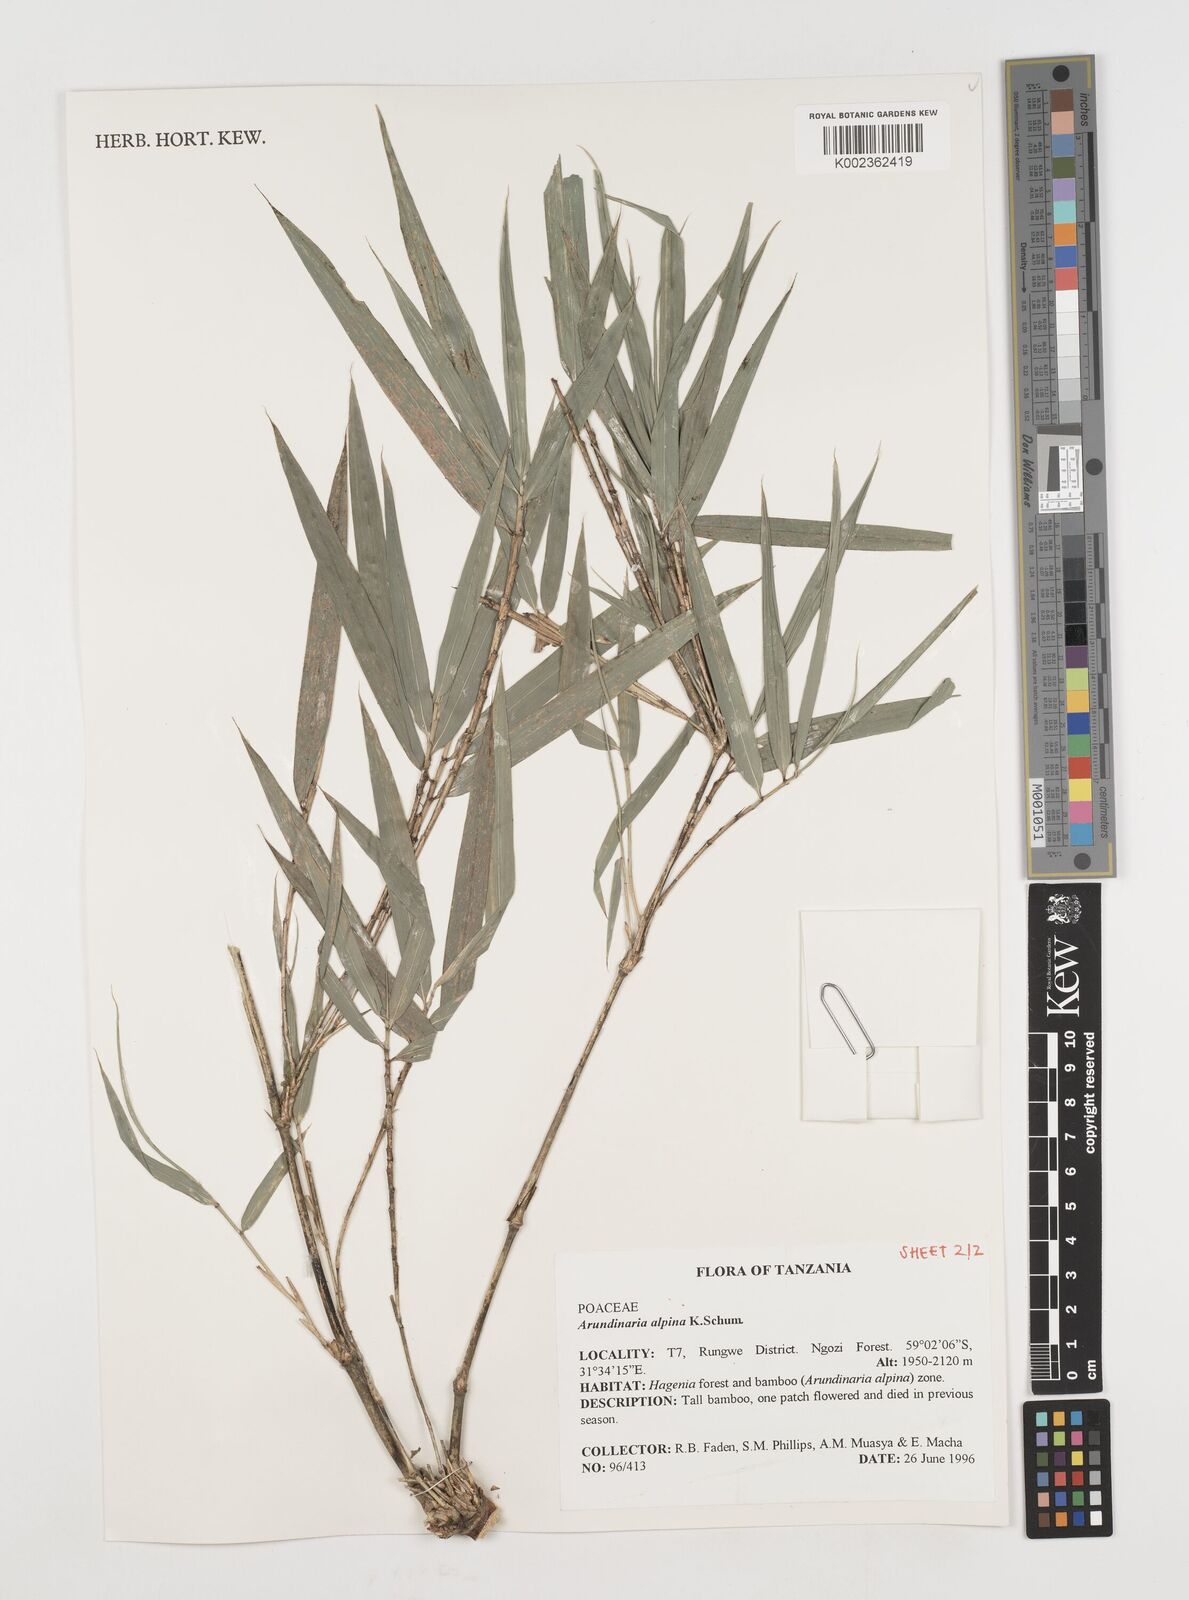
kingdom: Plantae
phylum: Tracheophyta
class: Liliopsida
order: Poales
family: Poaceae
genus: Oldeania
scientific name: Oldeania alpina
